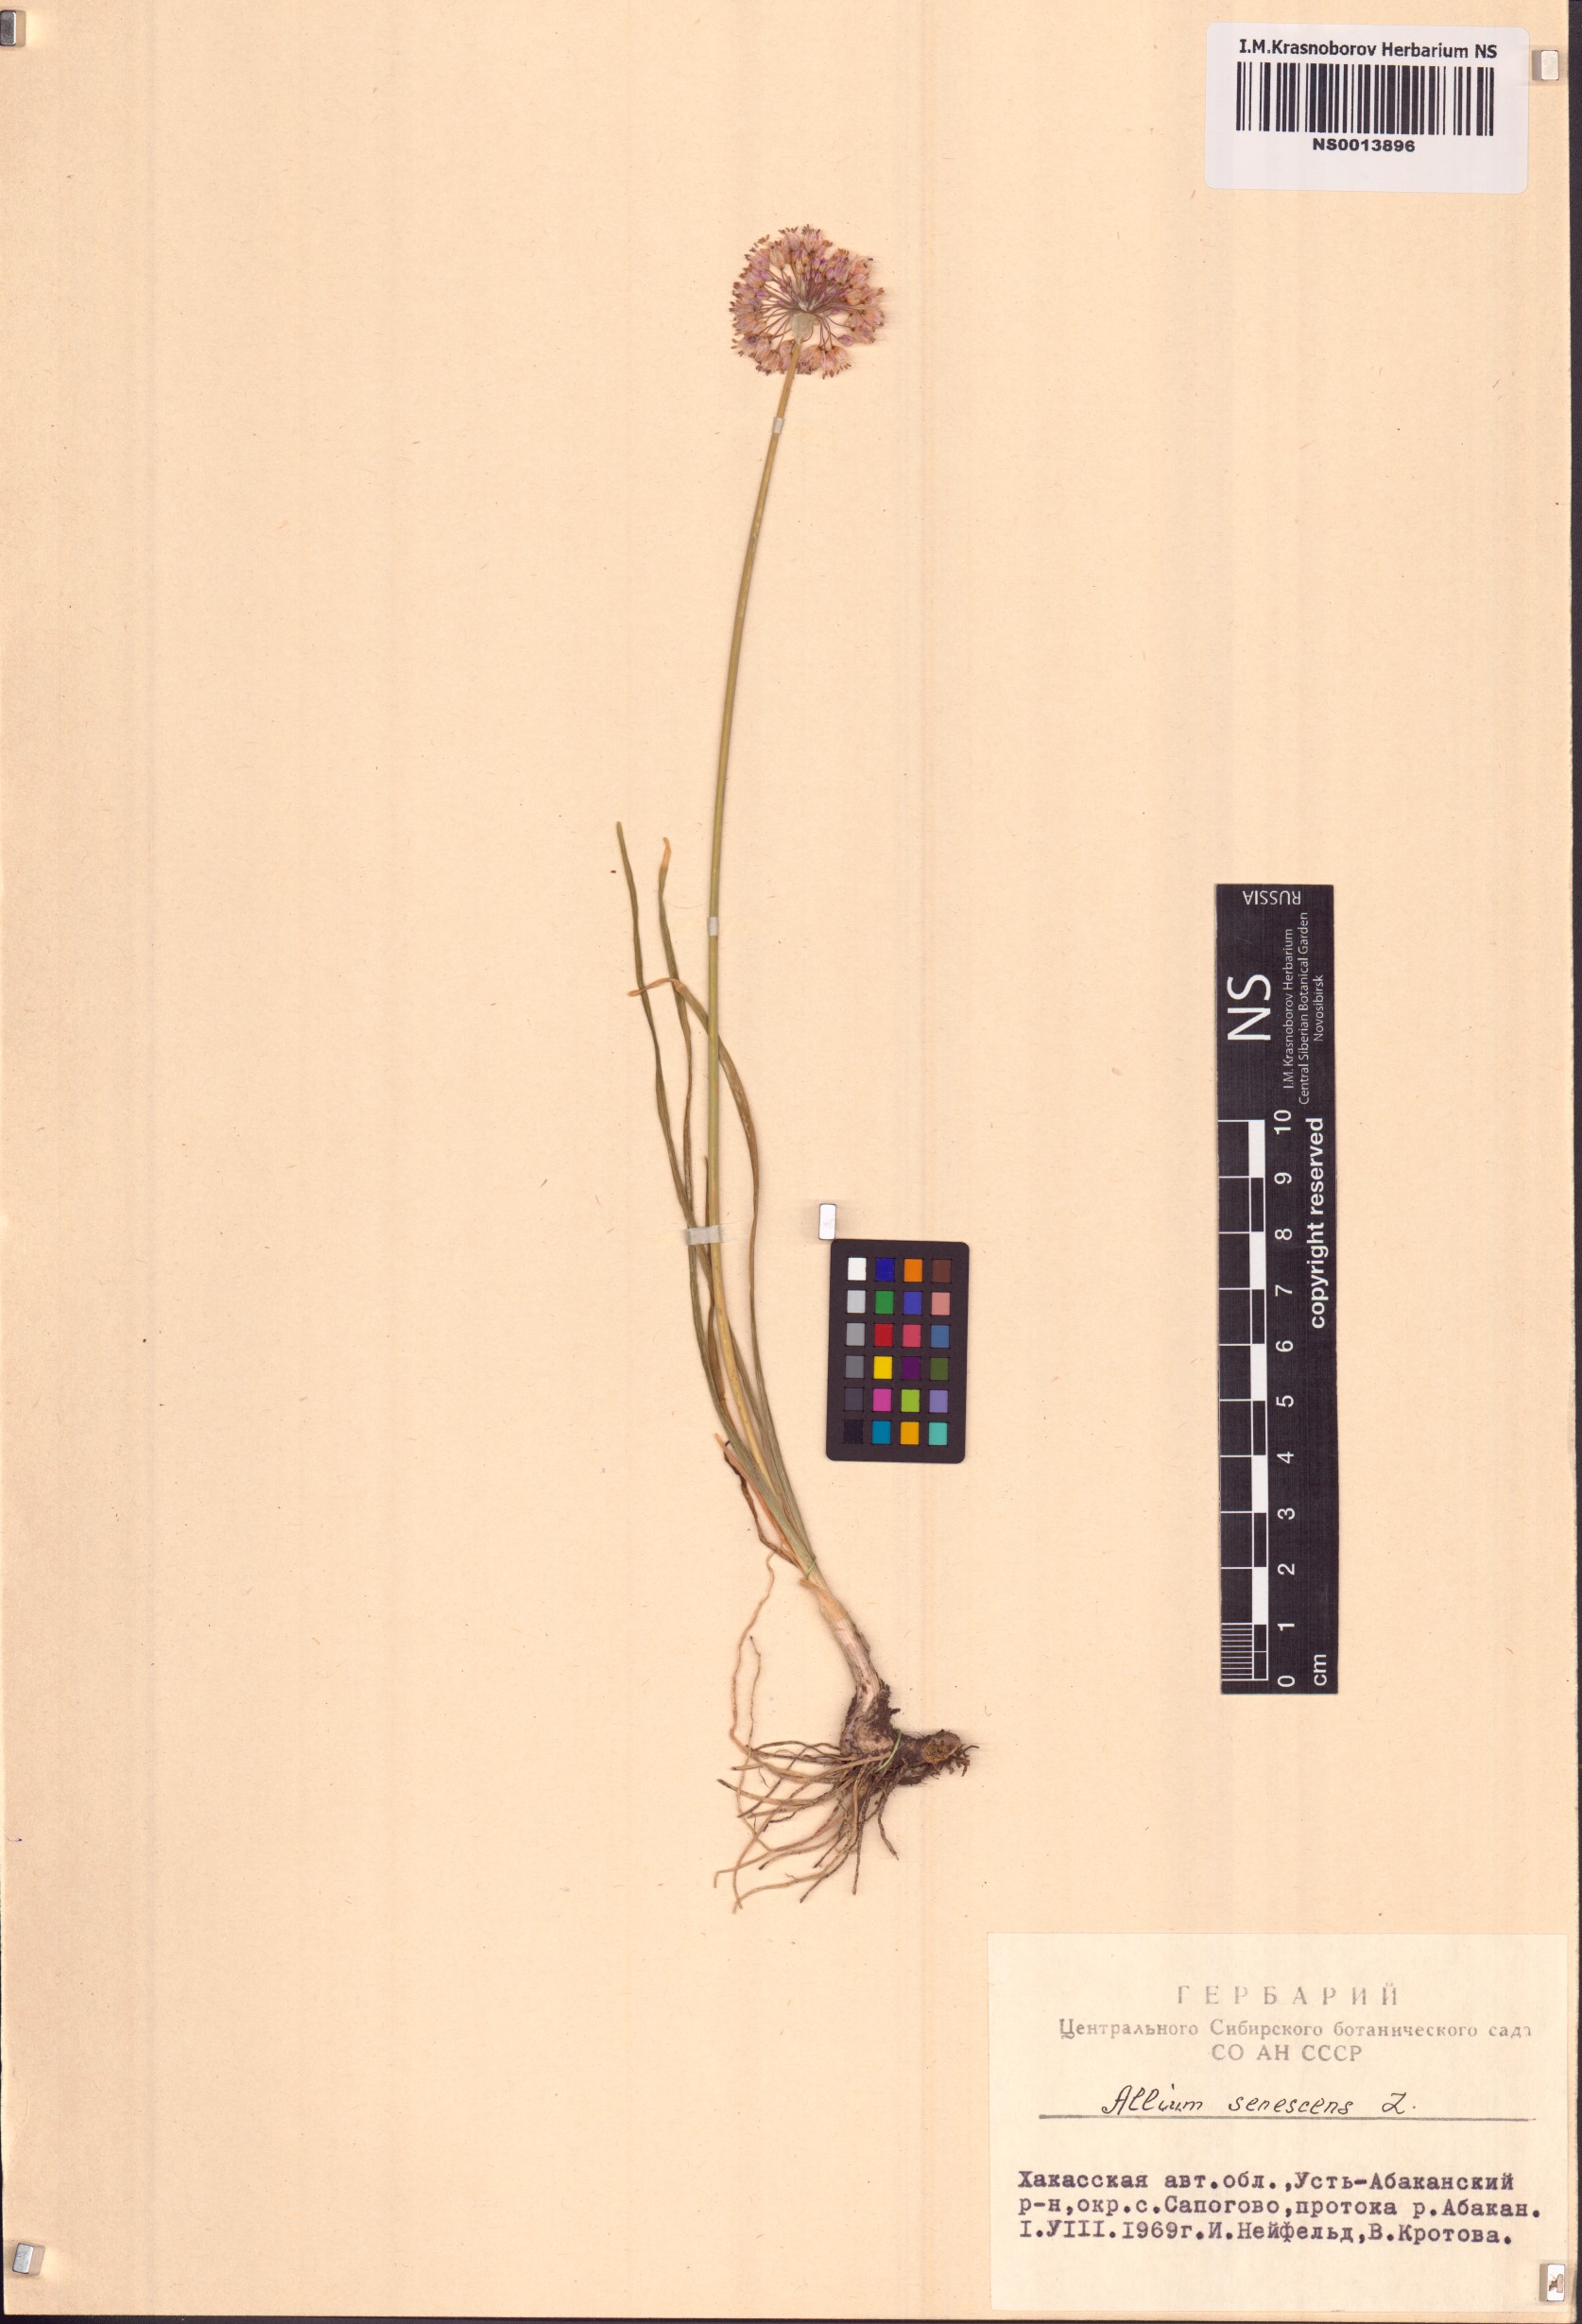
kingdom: Plantae
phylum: Tracheophyta
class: Liliopsida
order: Asparagales
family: Amaryllidaceae
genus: Allium
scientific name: Allium senescens
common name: German garlic
